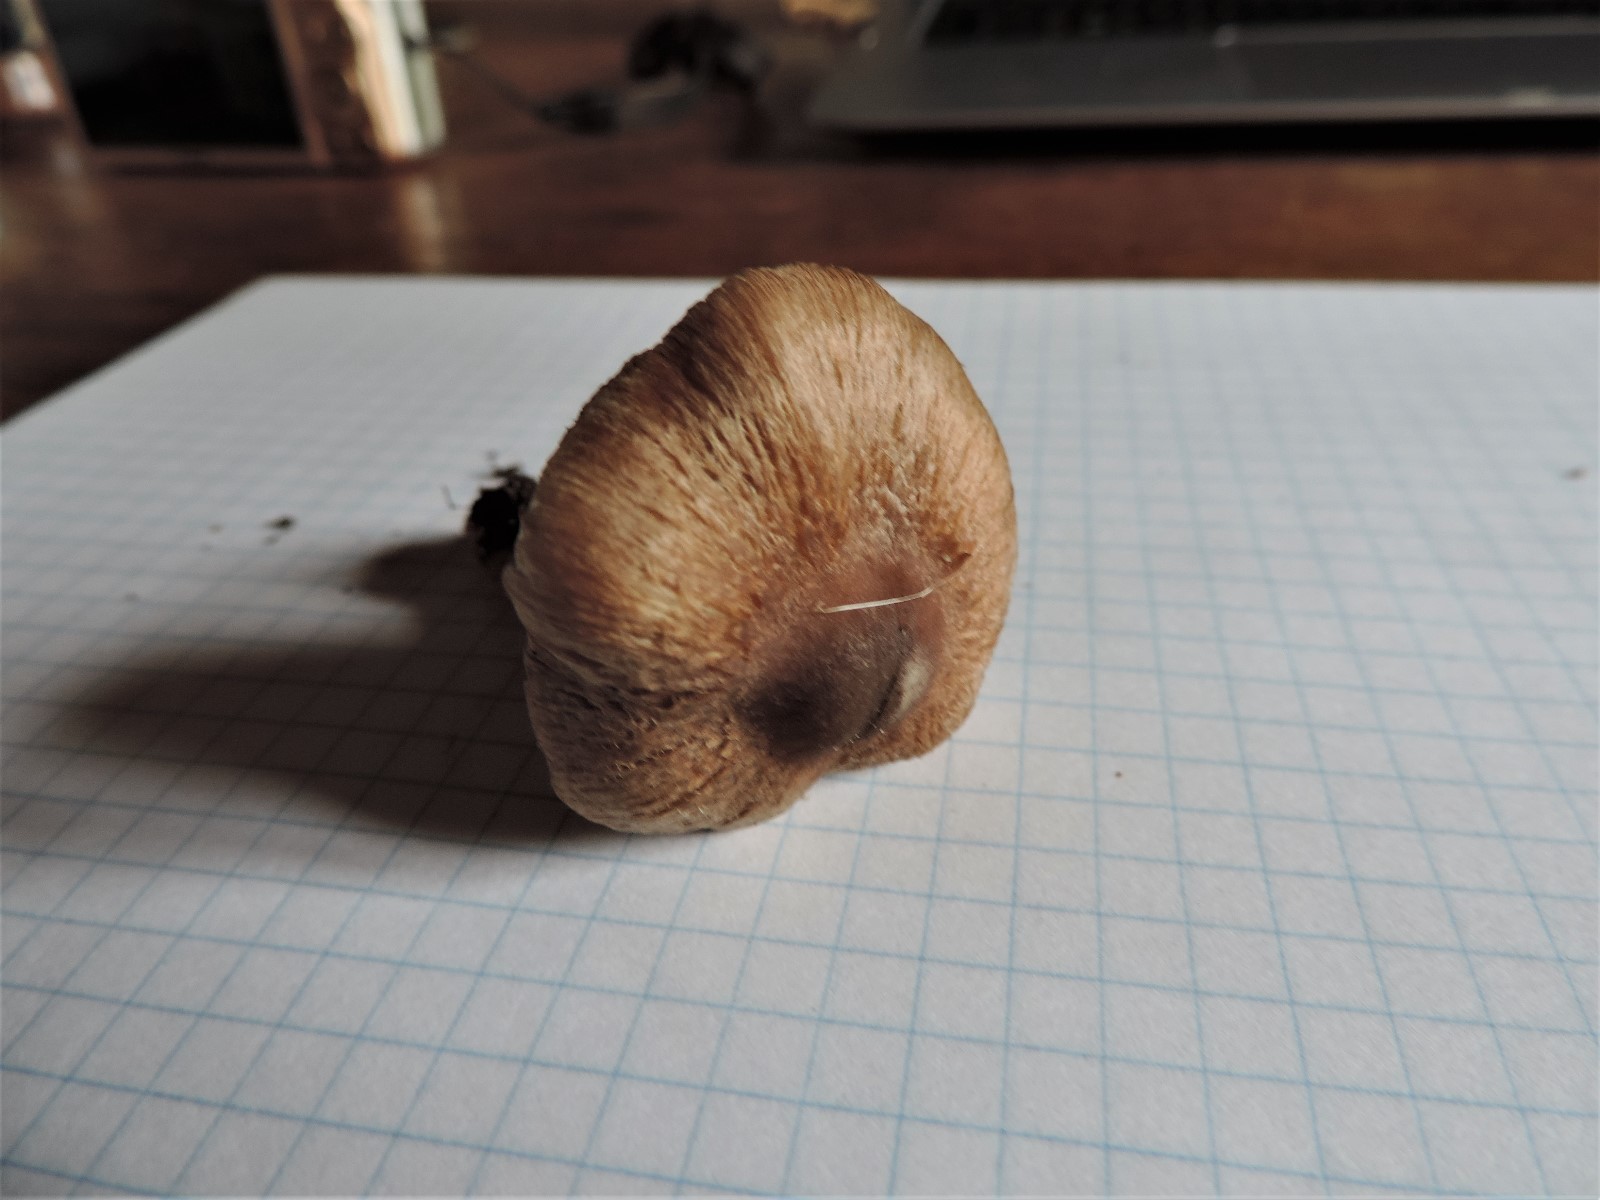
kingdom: Fungi
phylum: Basidiomycota
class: Agaricomycetes
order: Agaricales
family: Inocybaceae
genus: Inocybe
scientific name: Inocybe
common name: trævlhat
